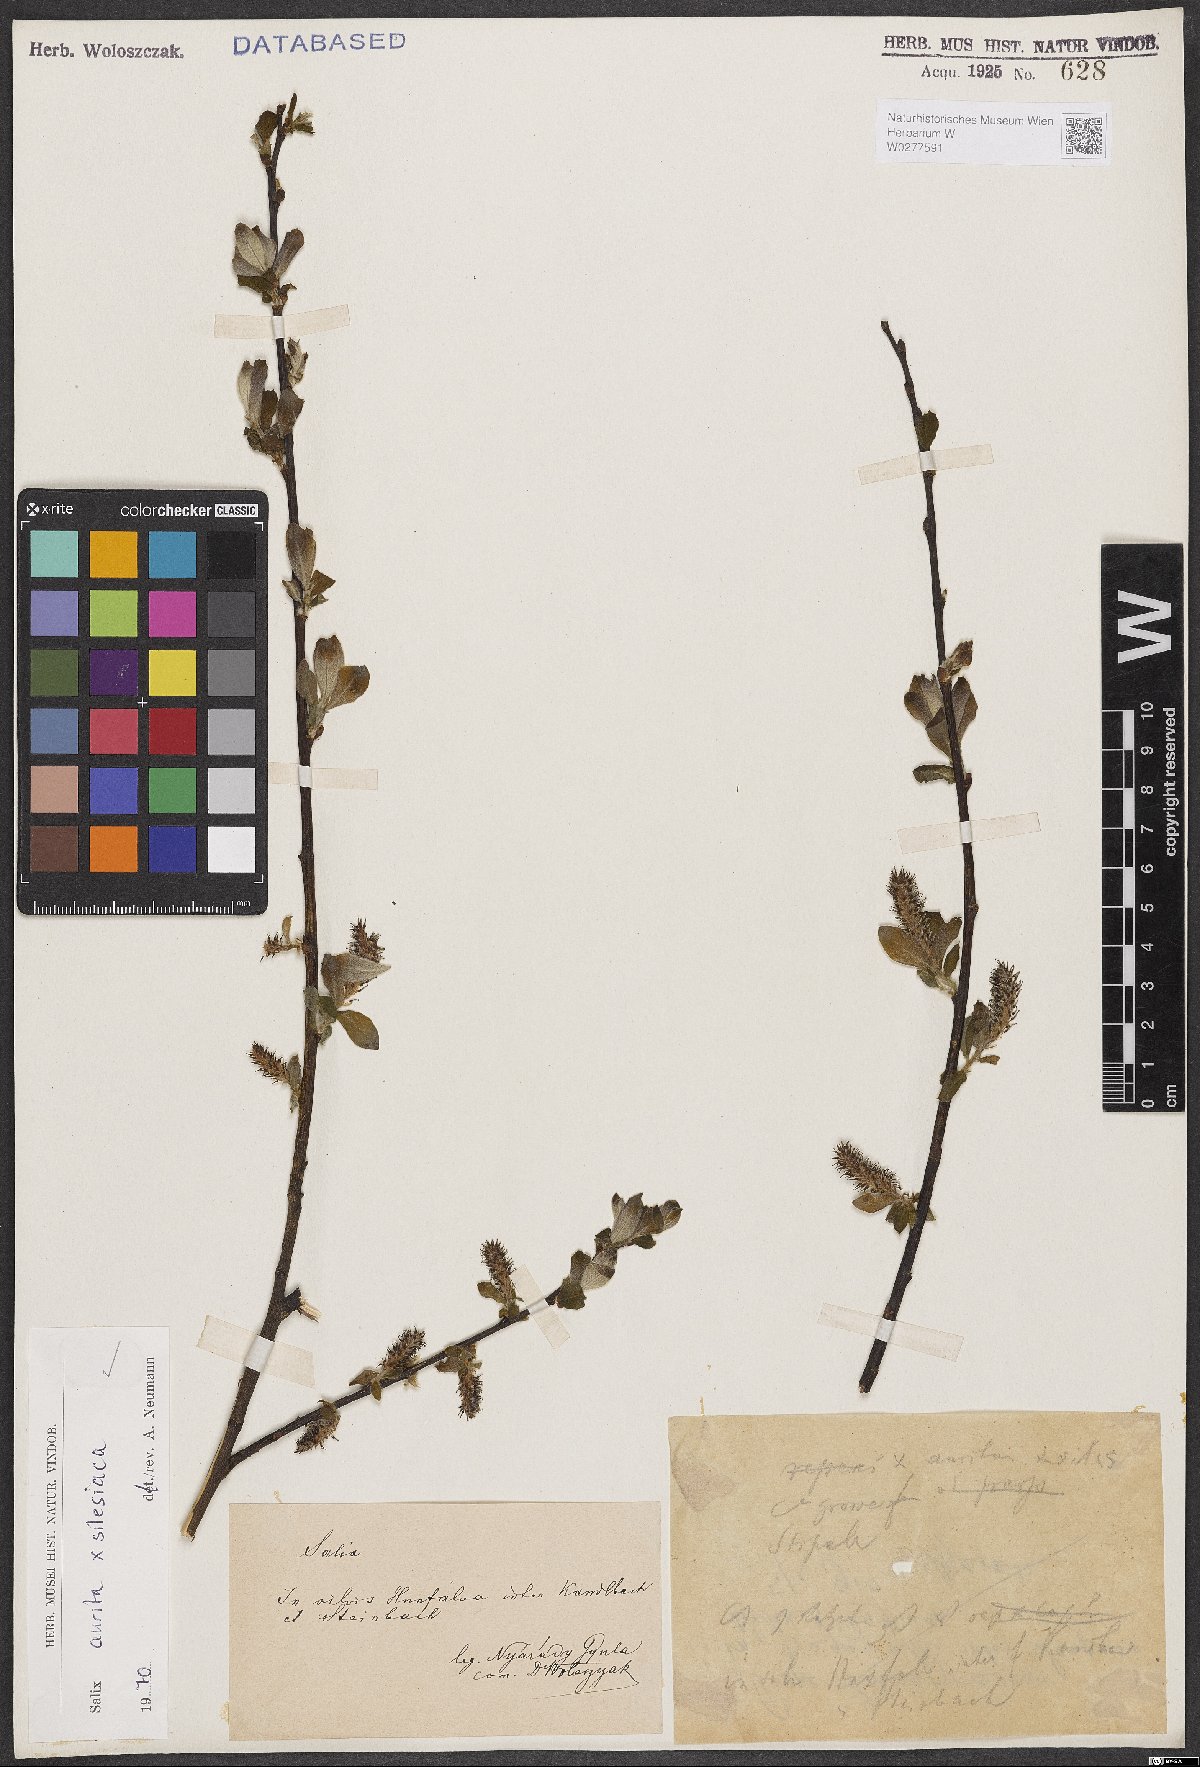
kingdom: Plantae
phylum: Tracheophyta
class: Magnoliopsida
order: Malpighiales
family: Salicaceae
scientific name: Salicaceae
